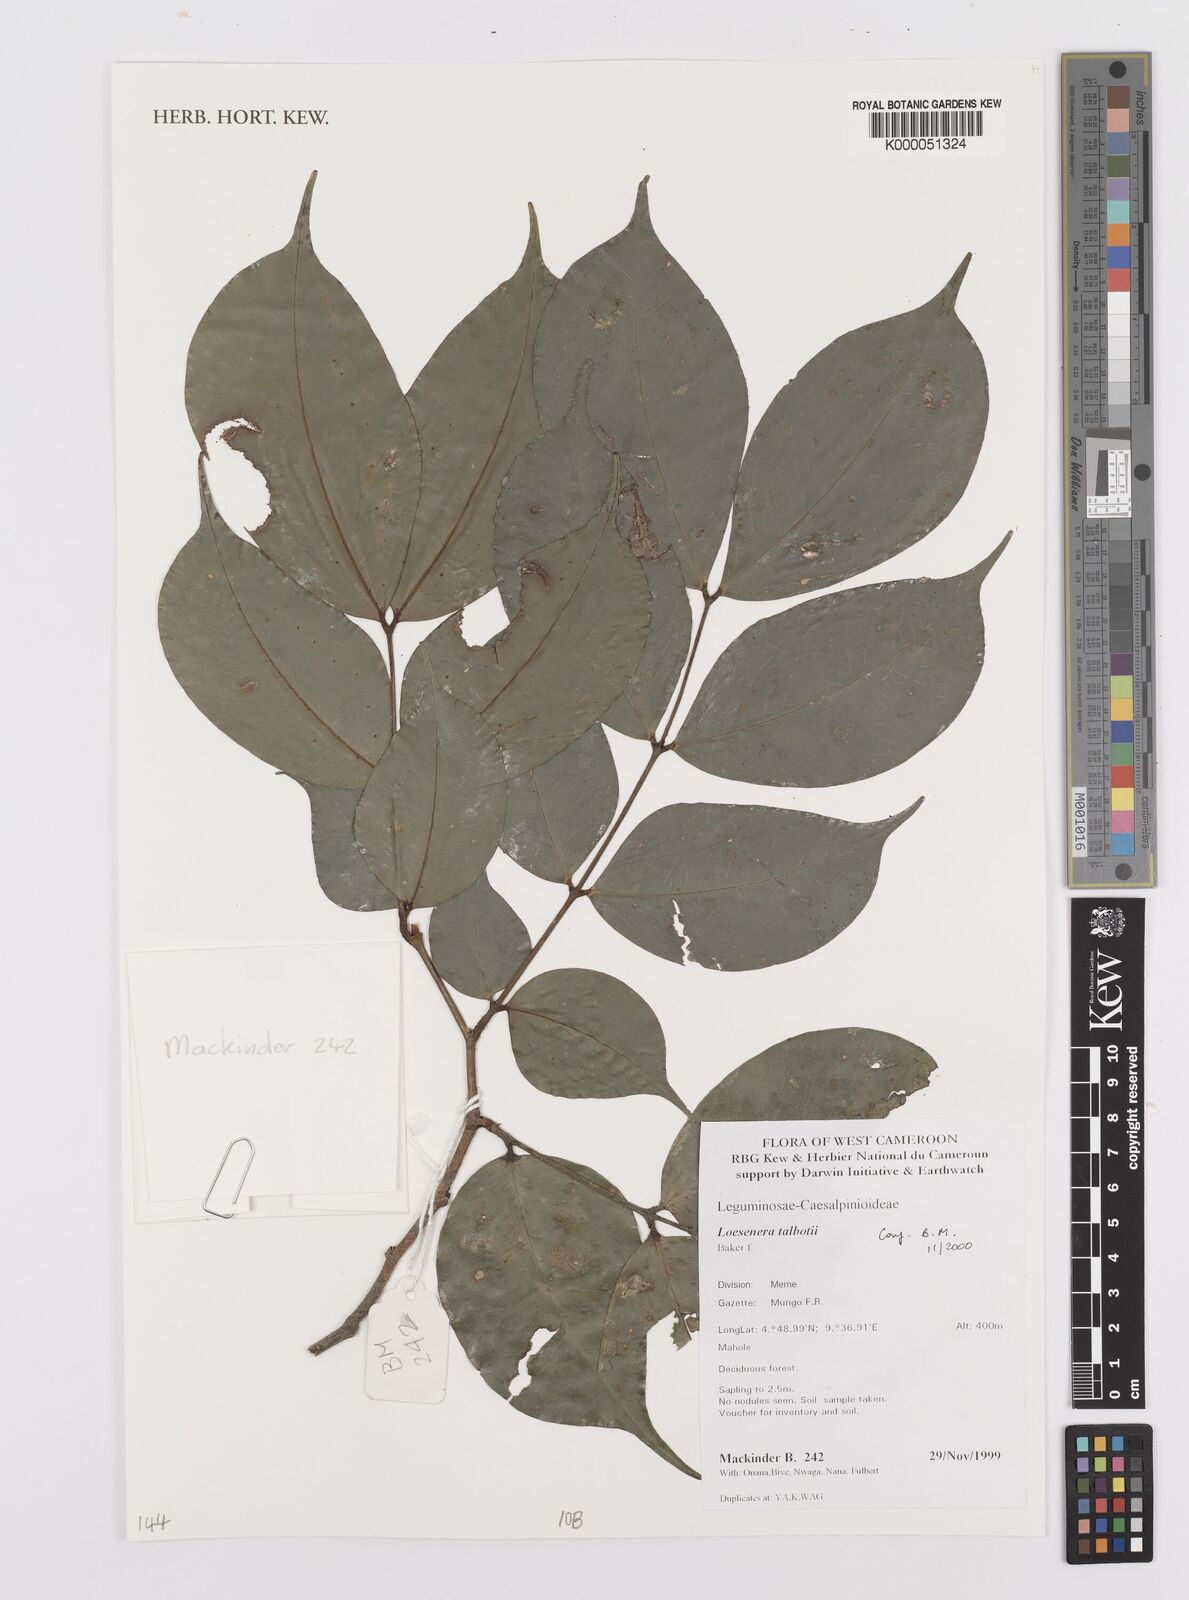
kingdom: Plantae
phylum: Tracheophyta
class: Magnoliopsida
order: Fabales
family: Fabaceae
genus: Loesenera
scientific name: Loesenera talbotii
